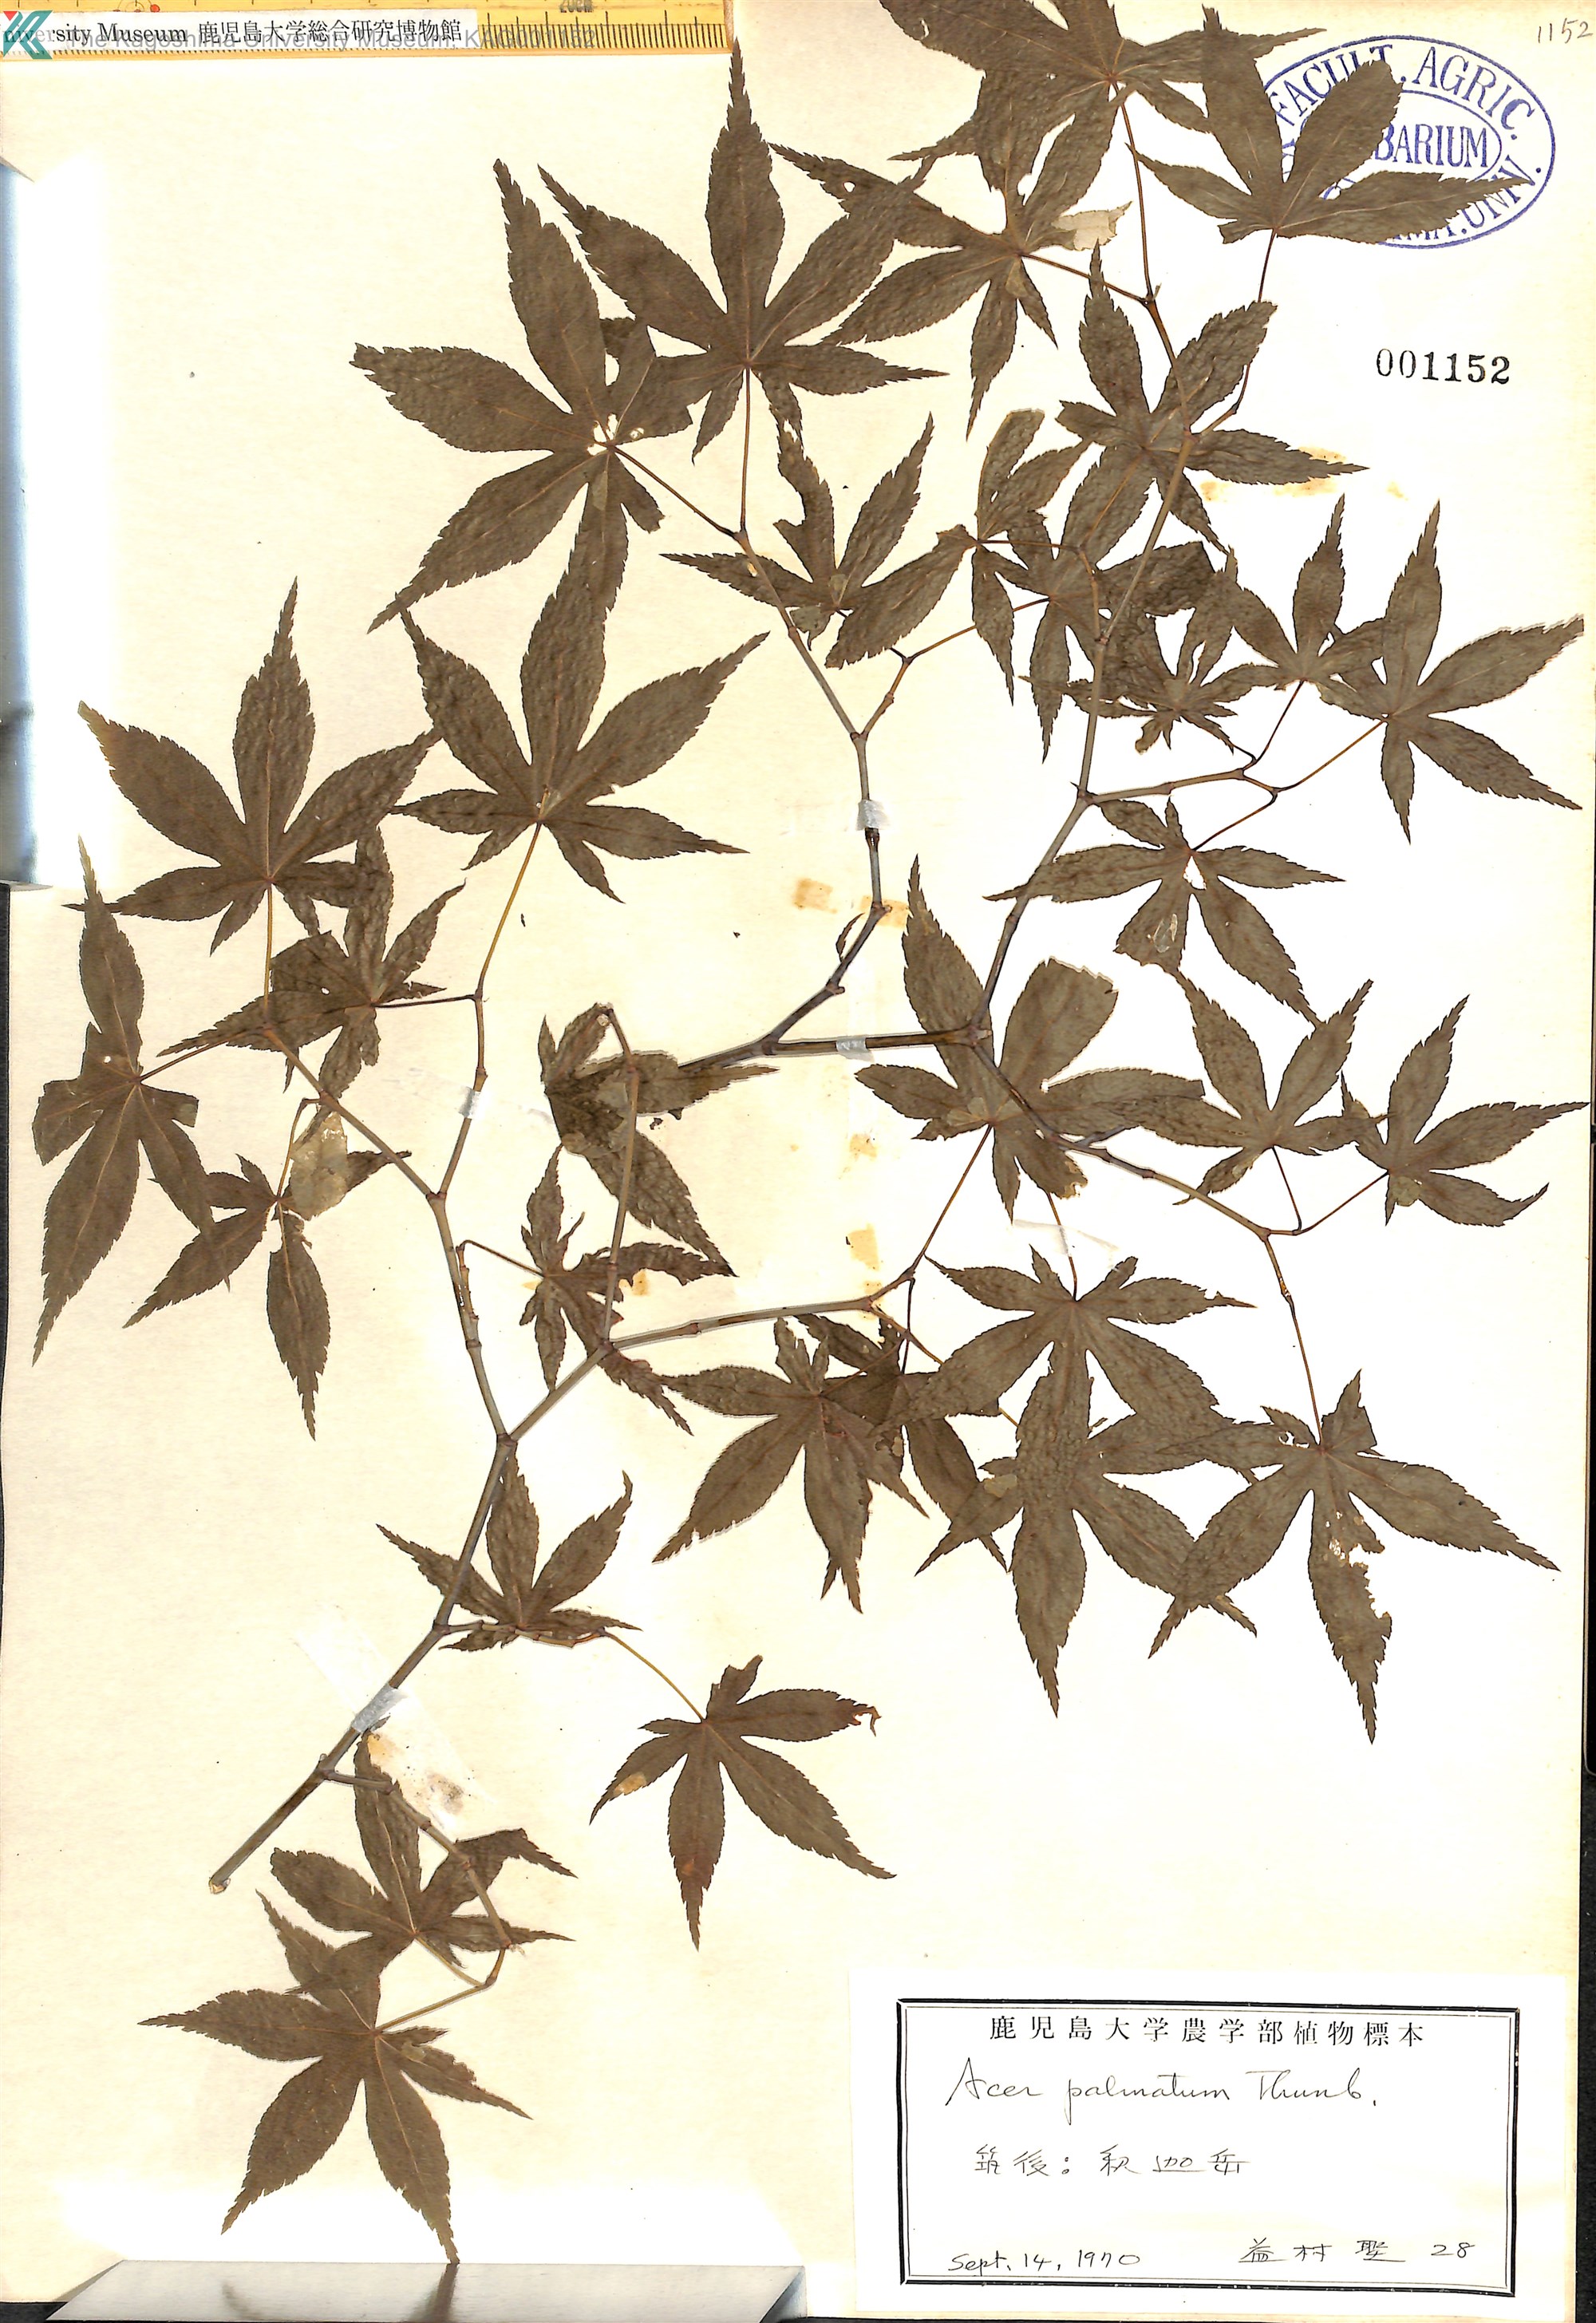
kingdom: Plantae
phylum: Tracheophyta
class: Magnoliopsida
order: Sapindales
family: Sapindaceae
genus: Acer
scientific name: Acer palmatum
